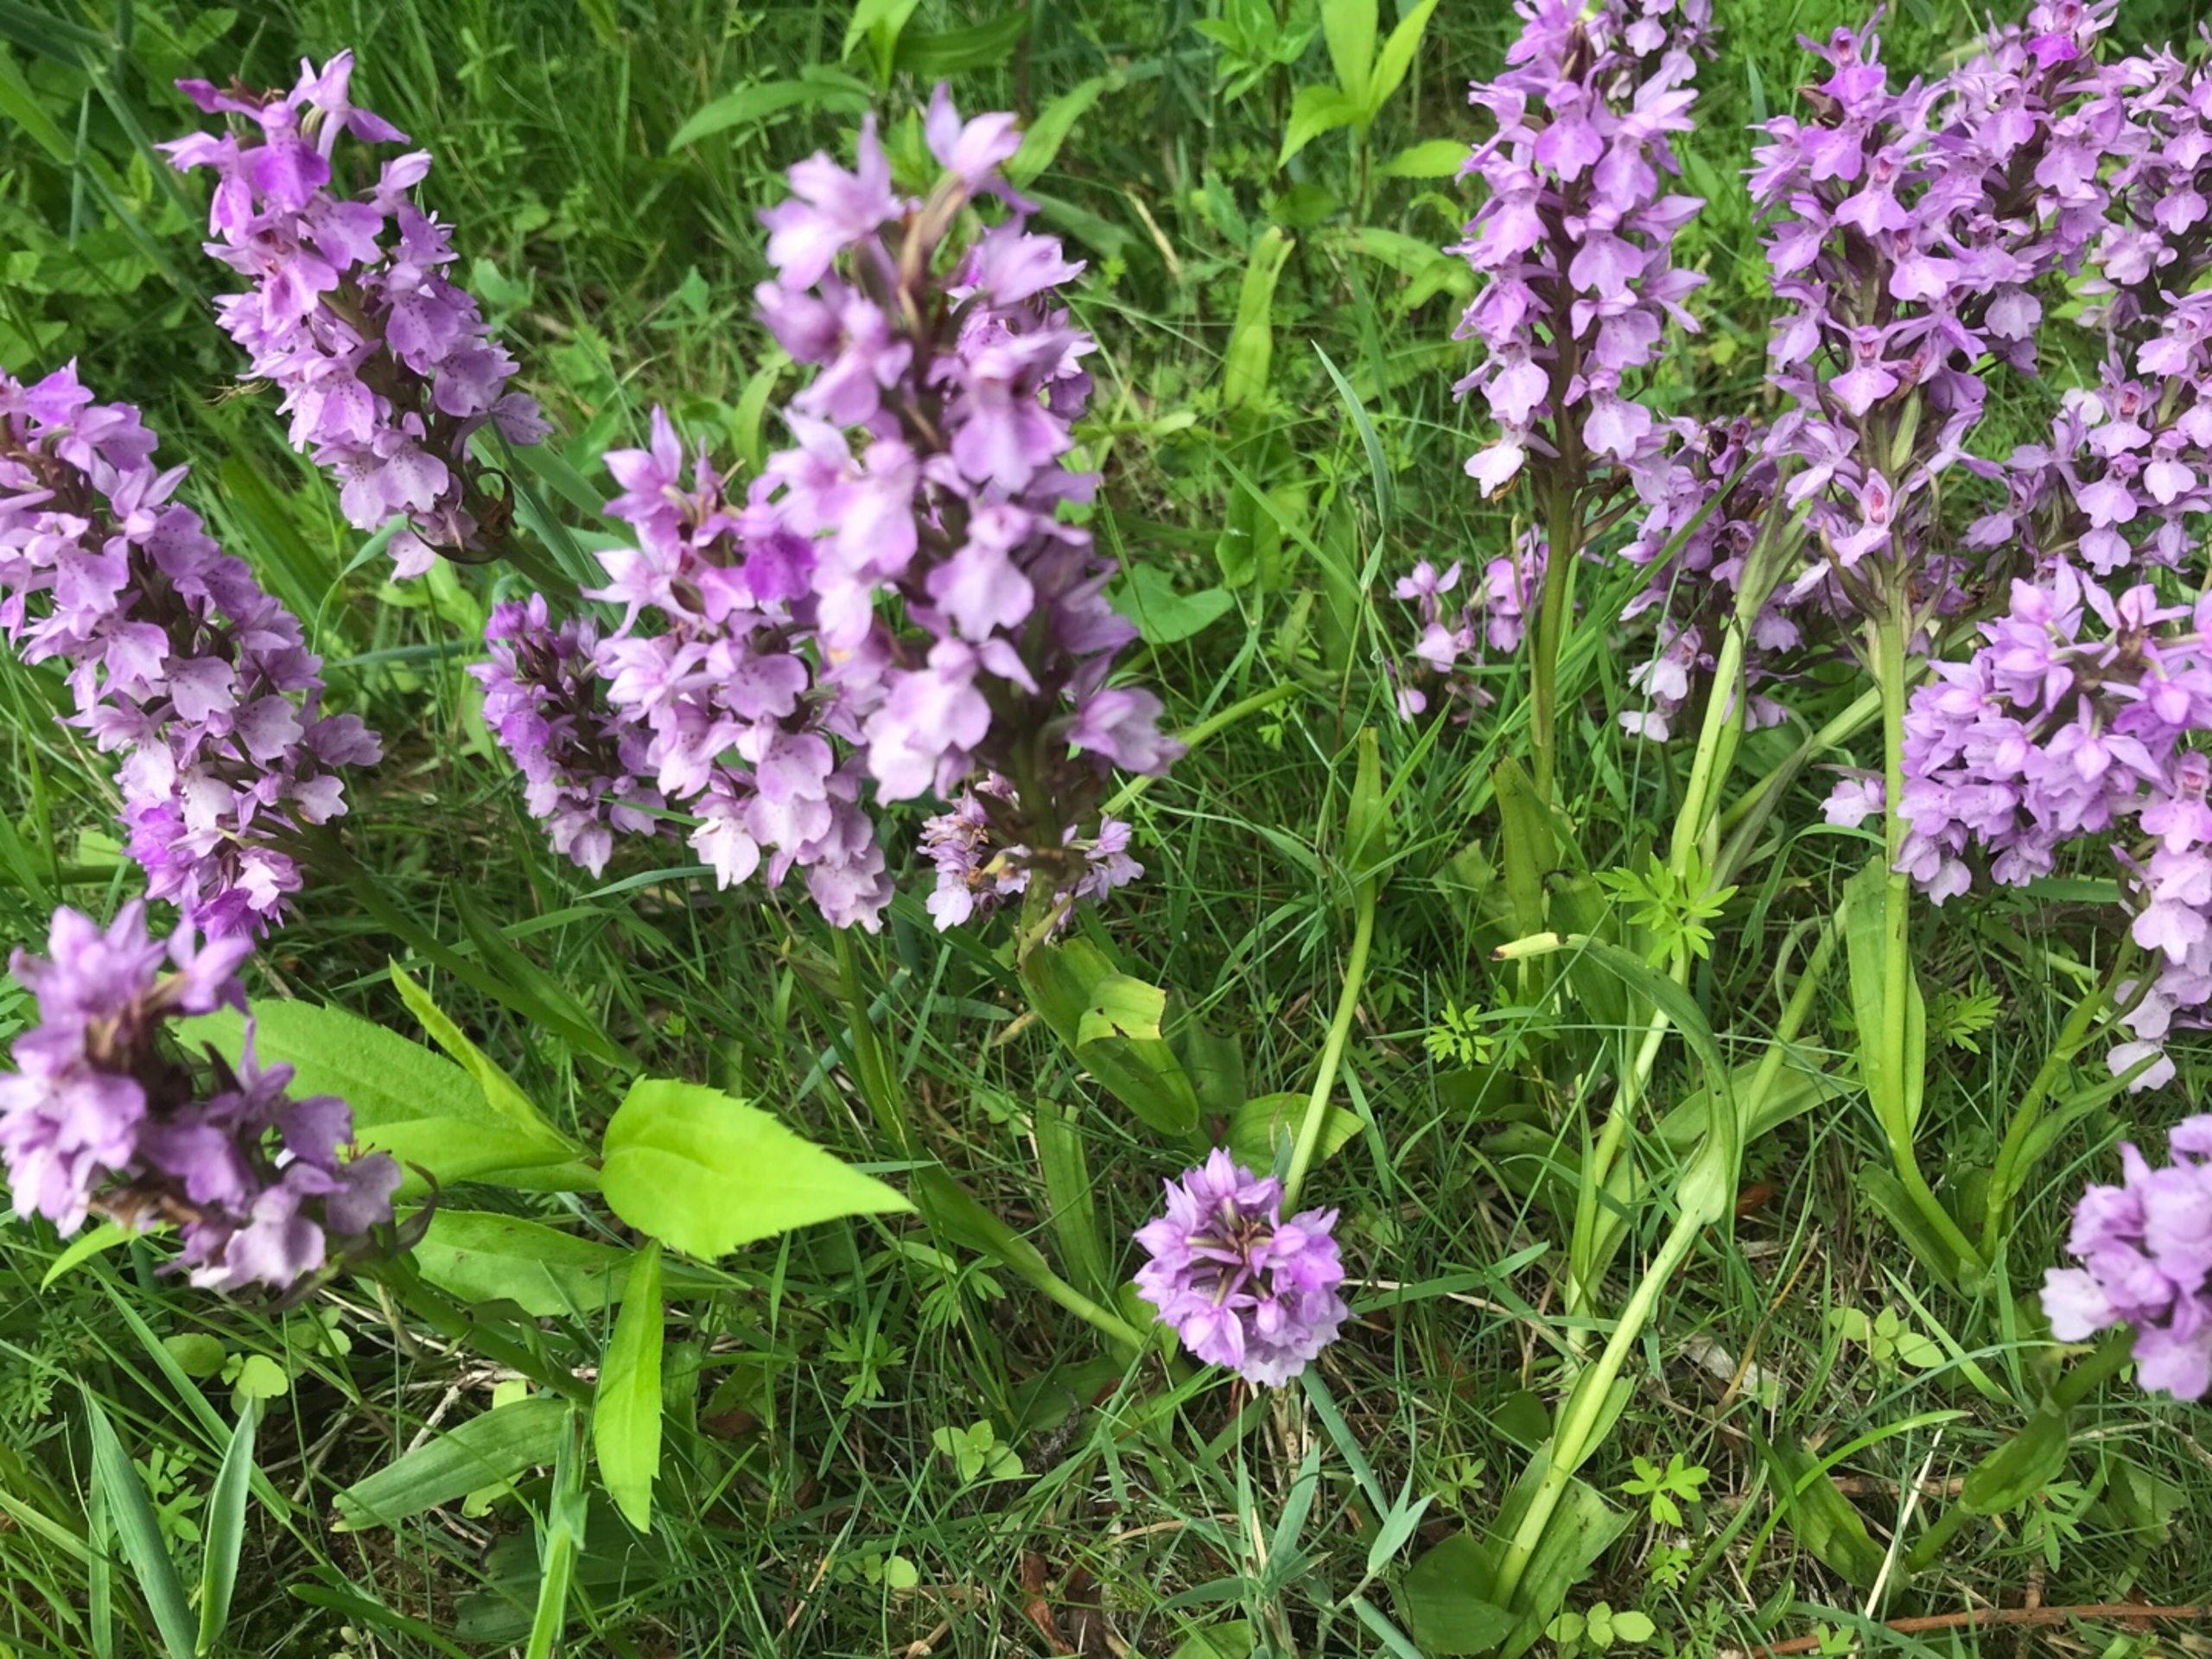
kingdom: Plantae
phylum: Tracheophyta
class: Liliopsida
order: Asparagales
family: Orchidaceae
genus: Dactylorhiza
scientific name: Dactylorhiza majalis
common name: Priklæbet gøgeurt
